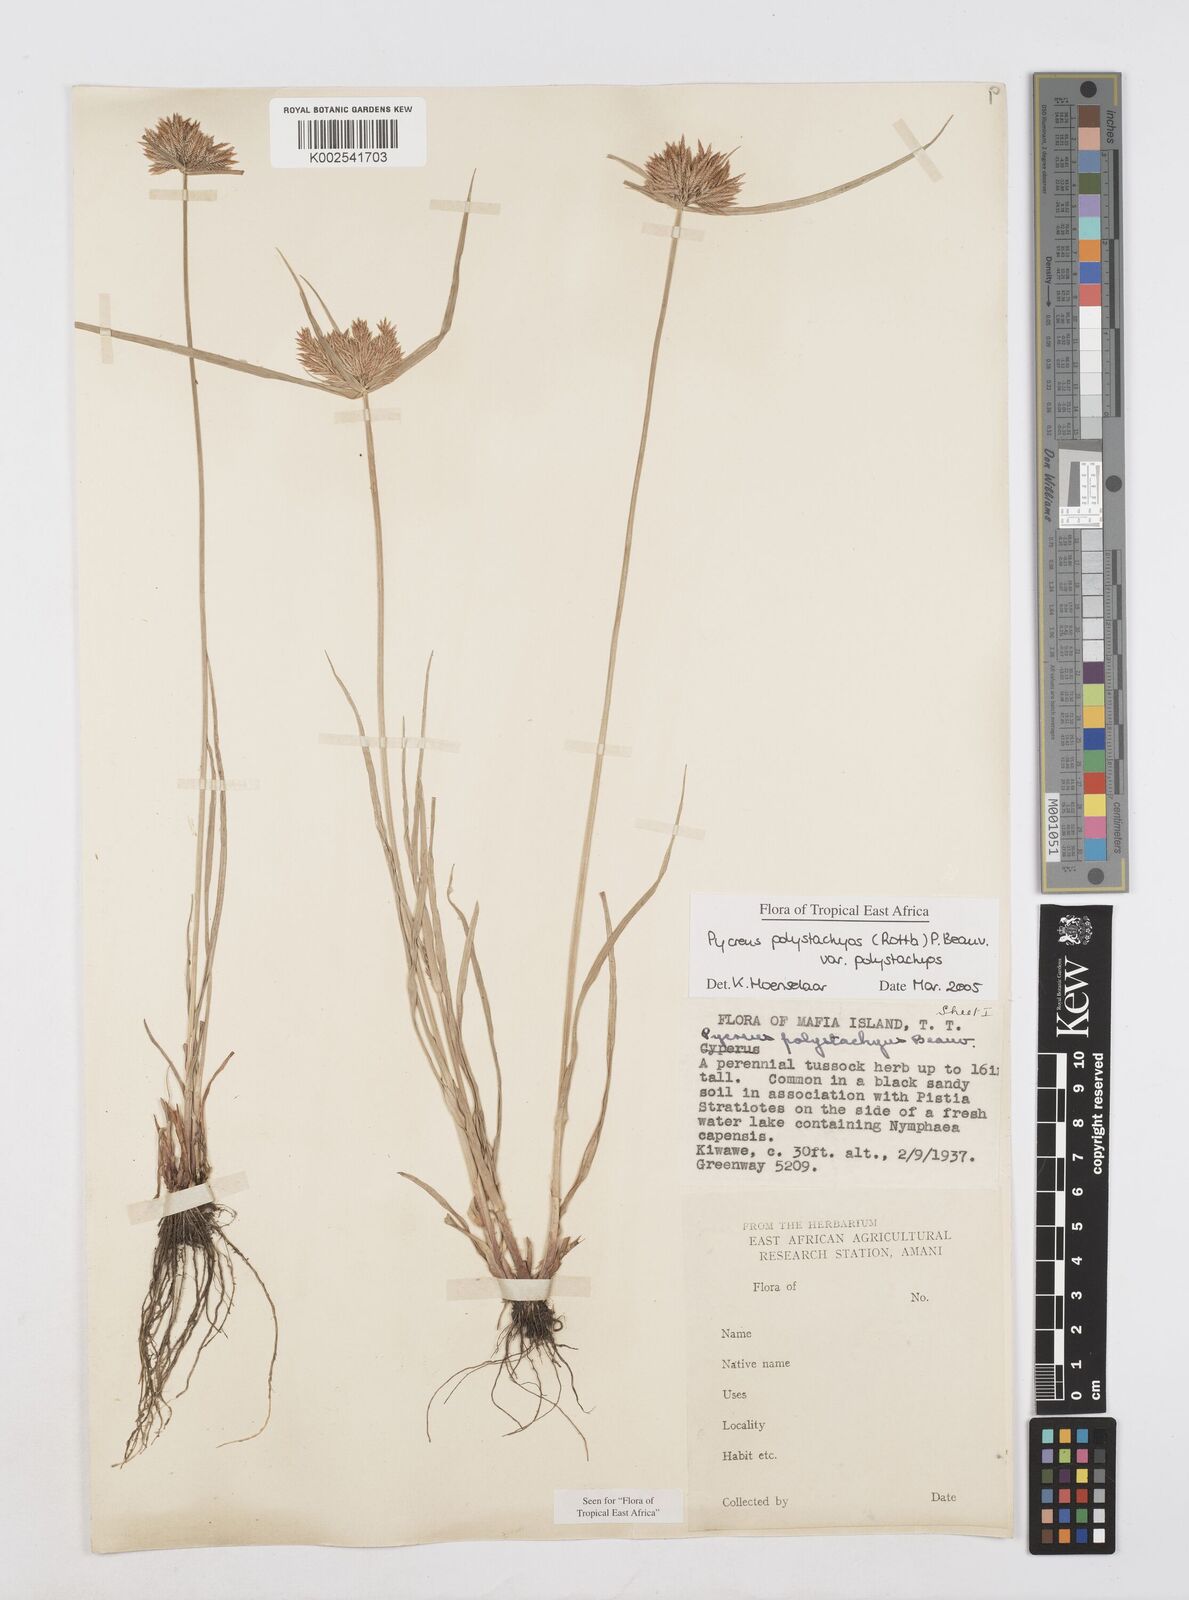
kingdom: Plantae
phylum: Tracheophyta
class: Liliopsida
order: Poales
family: Cyperaceae
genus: Cyperus
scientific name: Cyperus polystachyos
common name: Bunchy flat sedge
